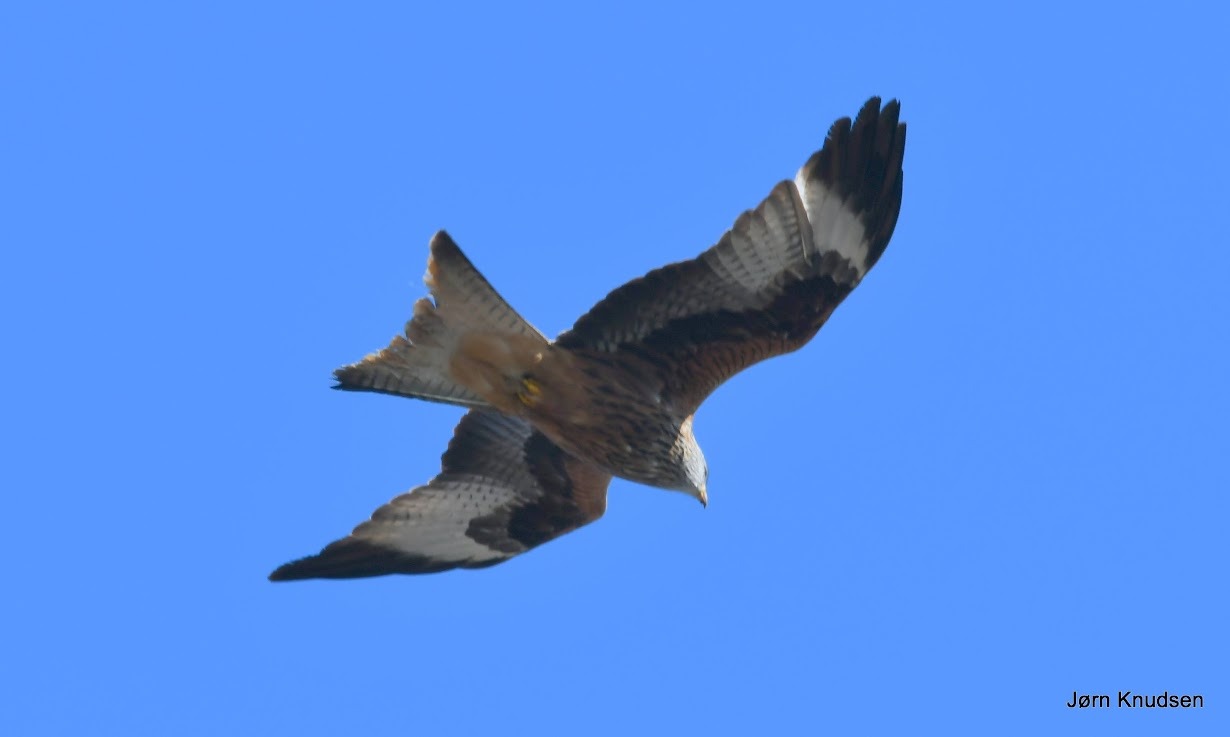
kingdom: Animalia
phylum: Chordata
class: Aves
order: Accipitriformes
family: Accipitridae
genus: Milvus
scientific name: Milvus milvus
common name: Rød glente
